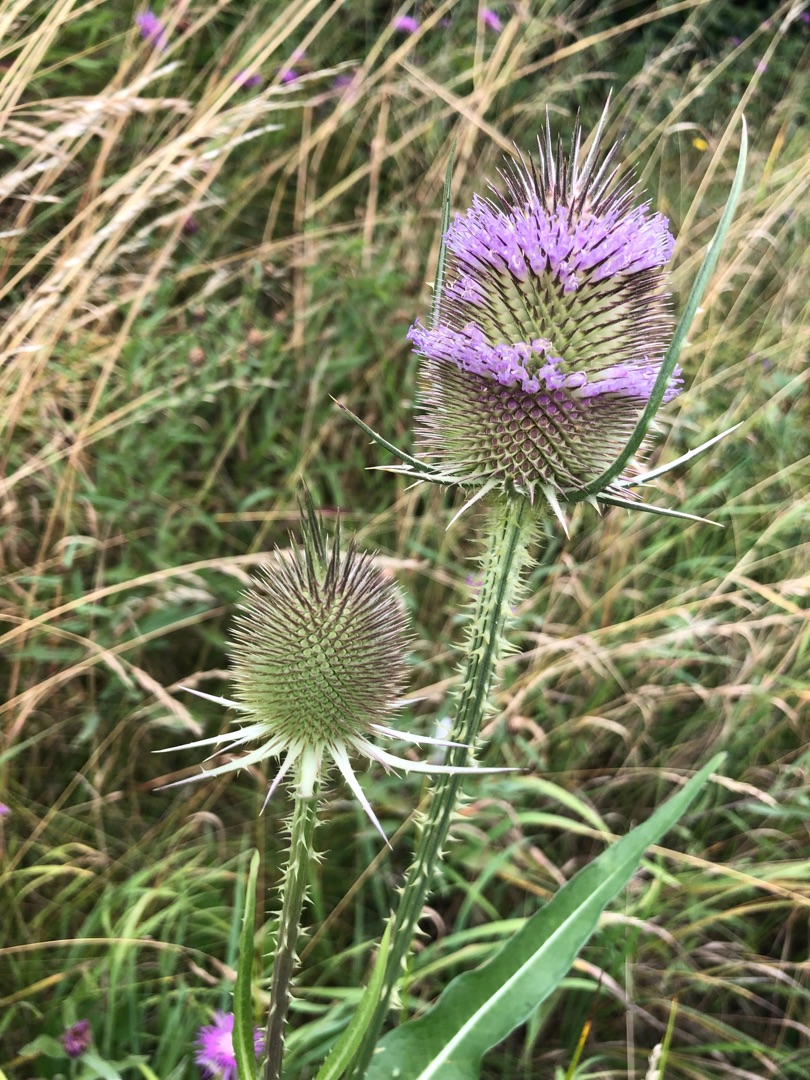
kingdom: Plantae
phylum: Tracheophyta
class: Magnoliopsida
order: Dipsacales
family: Caprifoliaceae
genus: Dipsacus
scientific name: Dipsacus fullonum
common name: Gærde-kartebolle
